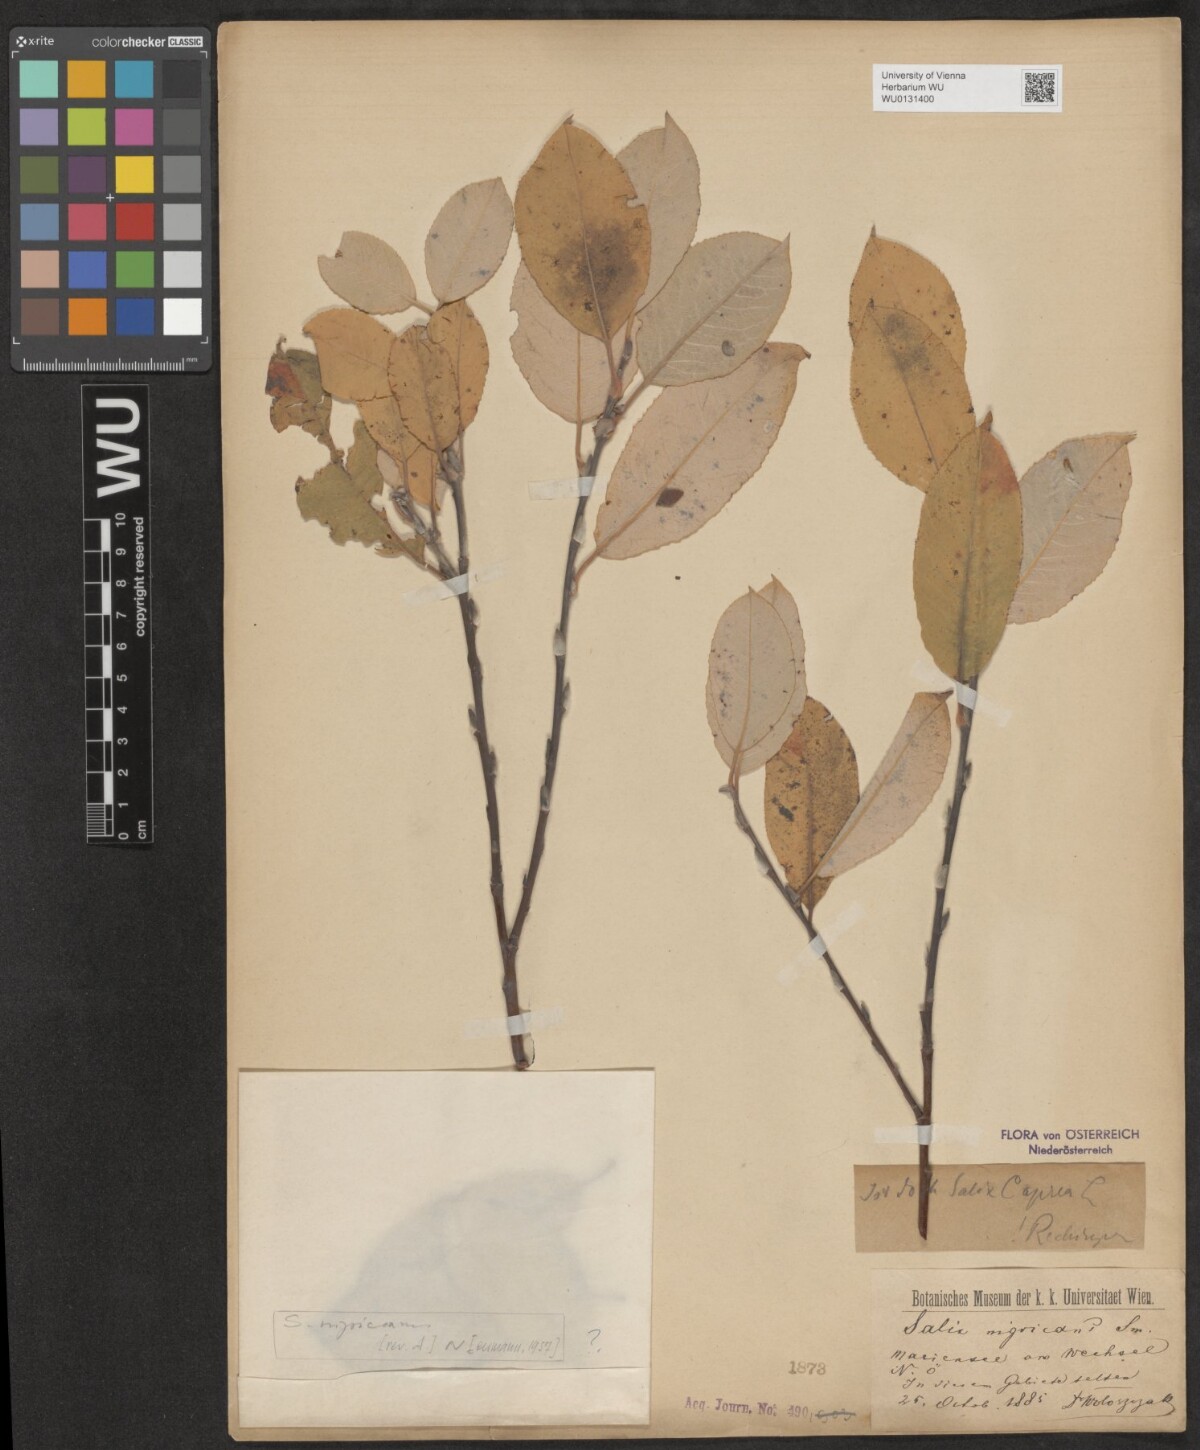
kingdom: Plantae
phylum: Tracheophyta
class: Magnoliopsida
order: Malpighiales
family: Salicaceae
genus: Salix
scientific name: Salix myrsinifolia
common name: Dark-leaved willow
